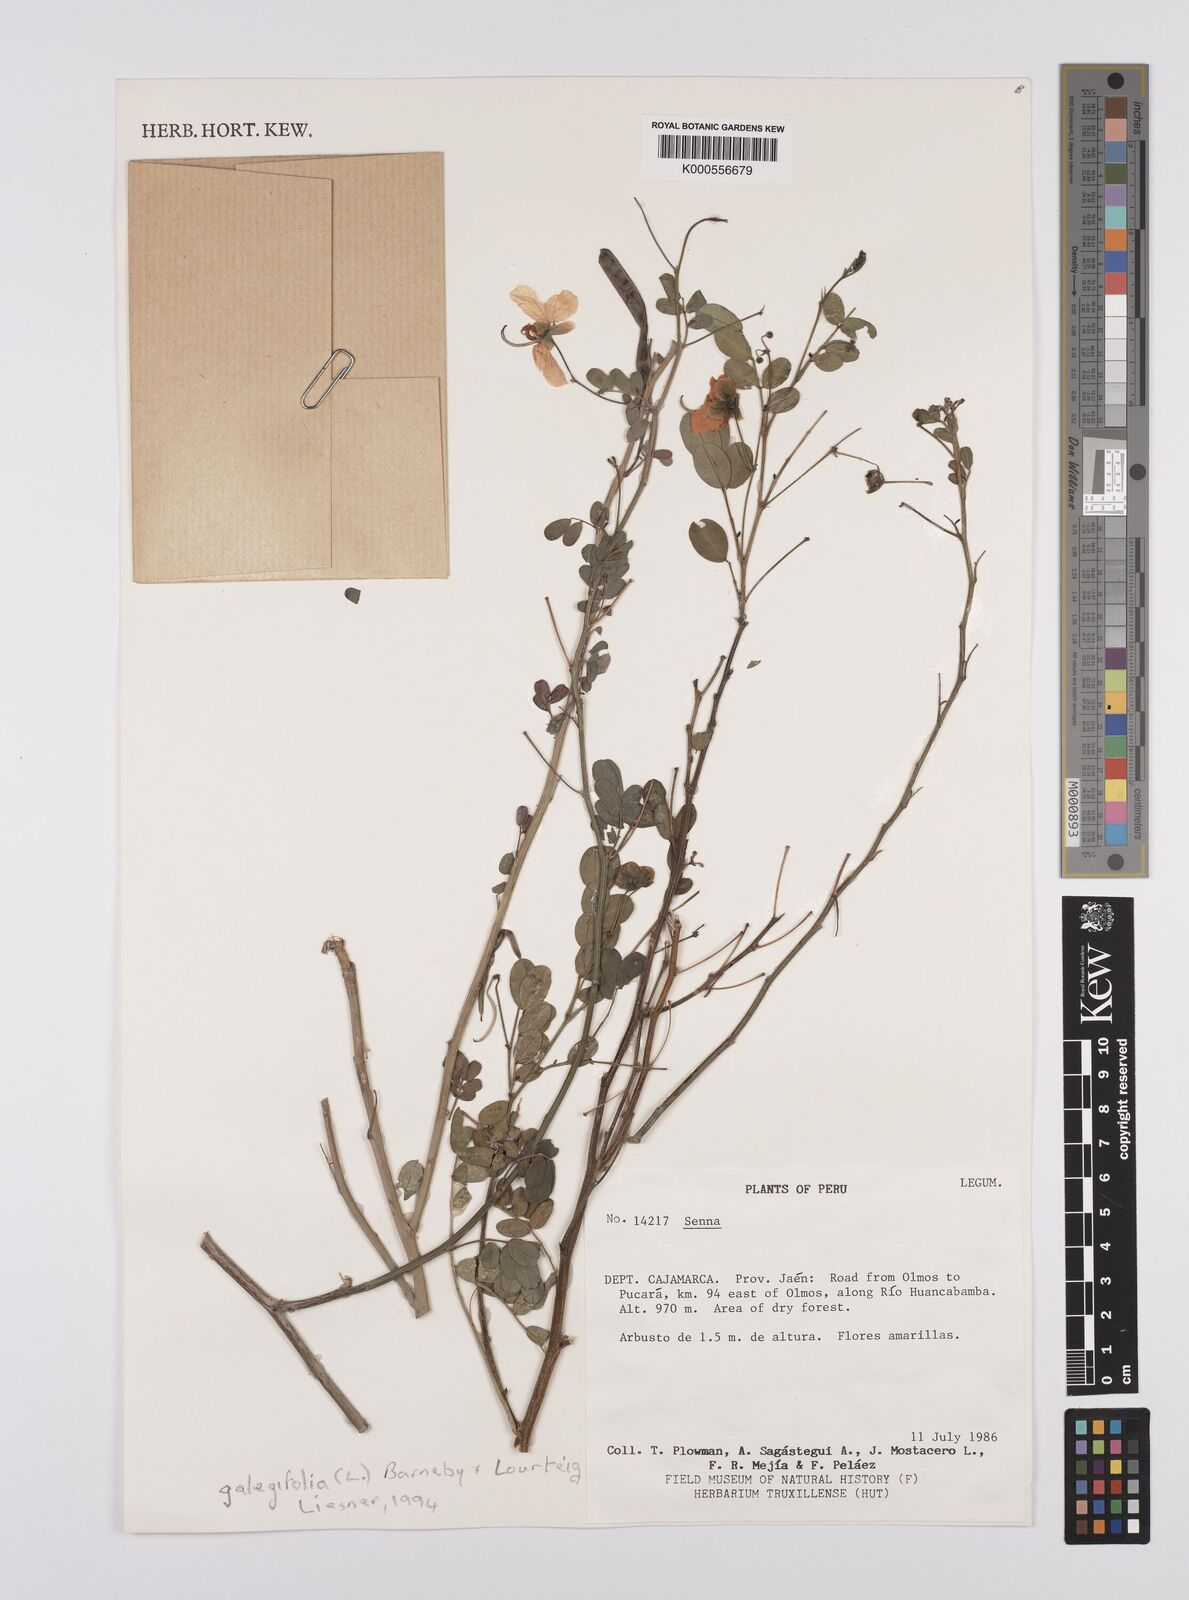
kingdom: Plantae
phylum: Tracheophyta
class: Magnoliopsida
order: Fabales
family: Fabaceae
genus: Senna
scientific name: Senna
